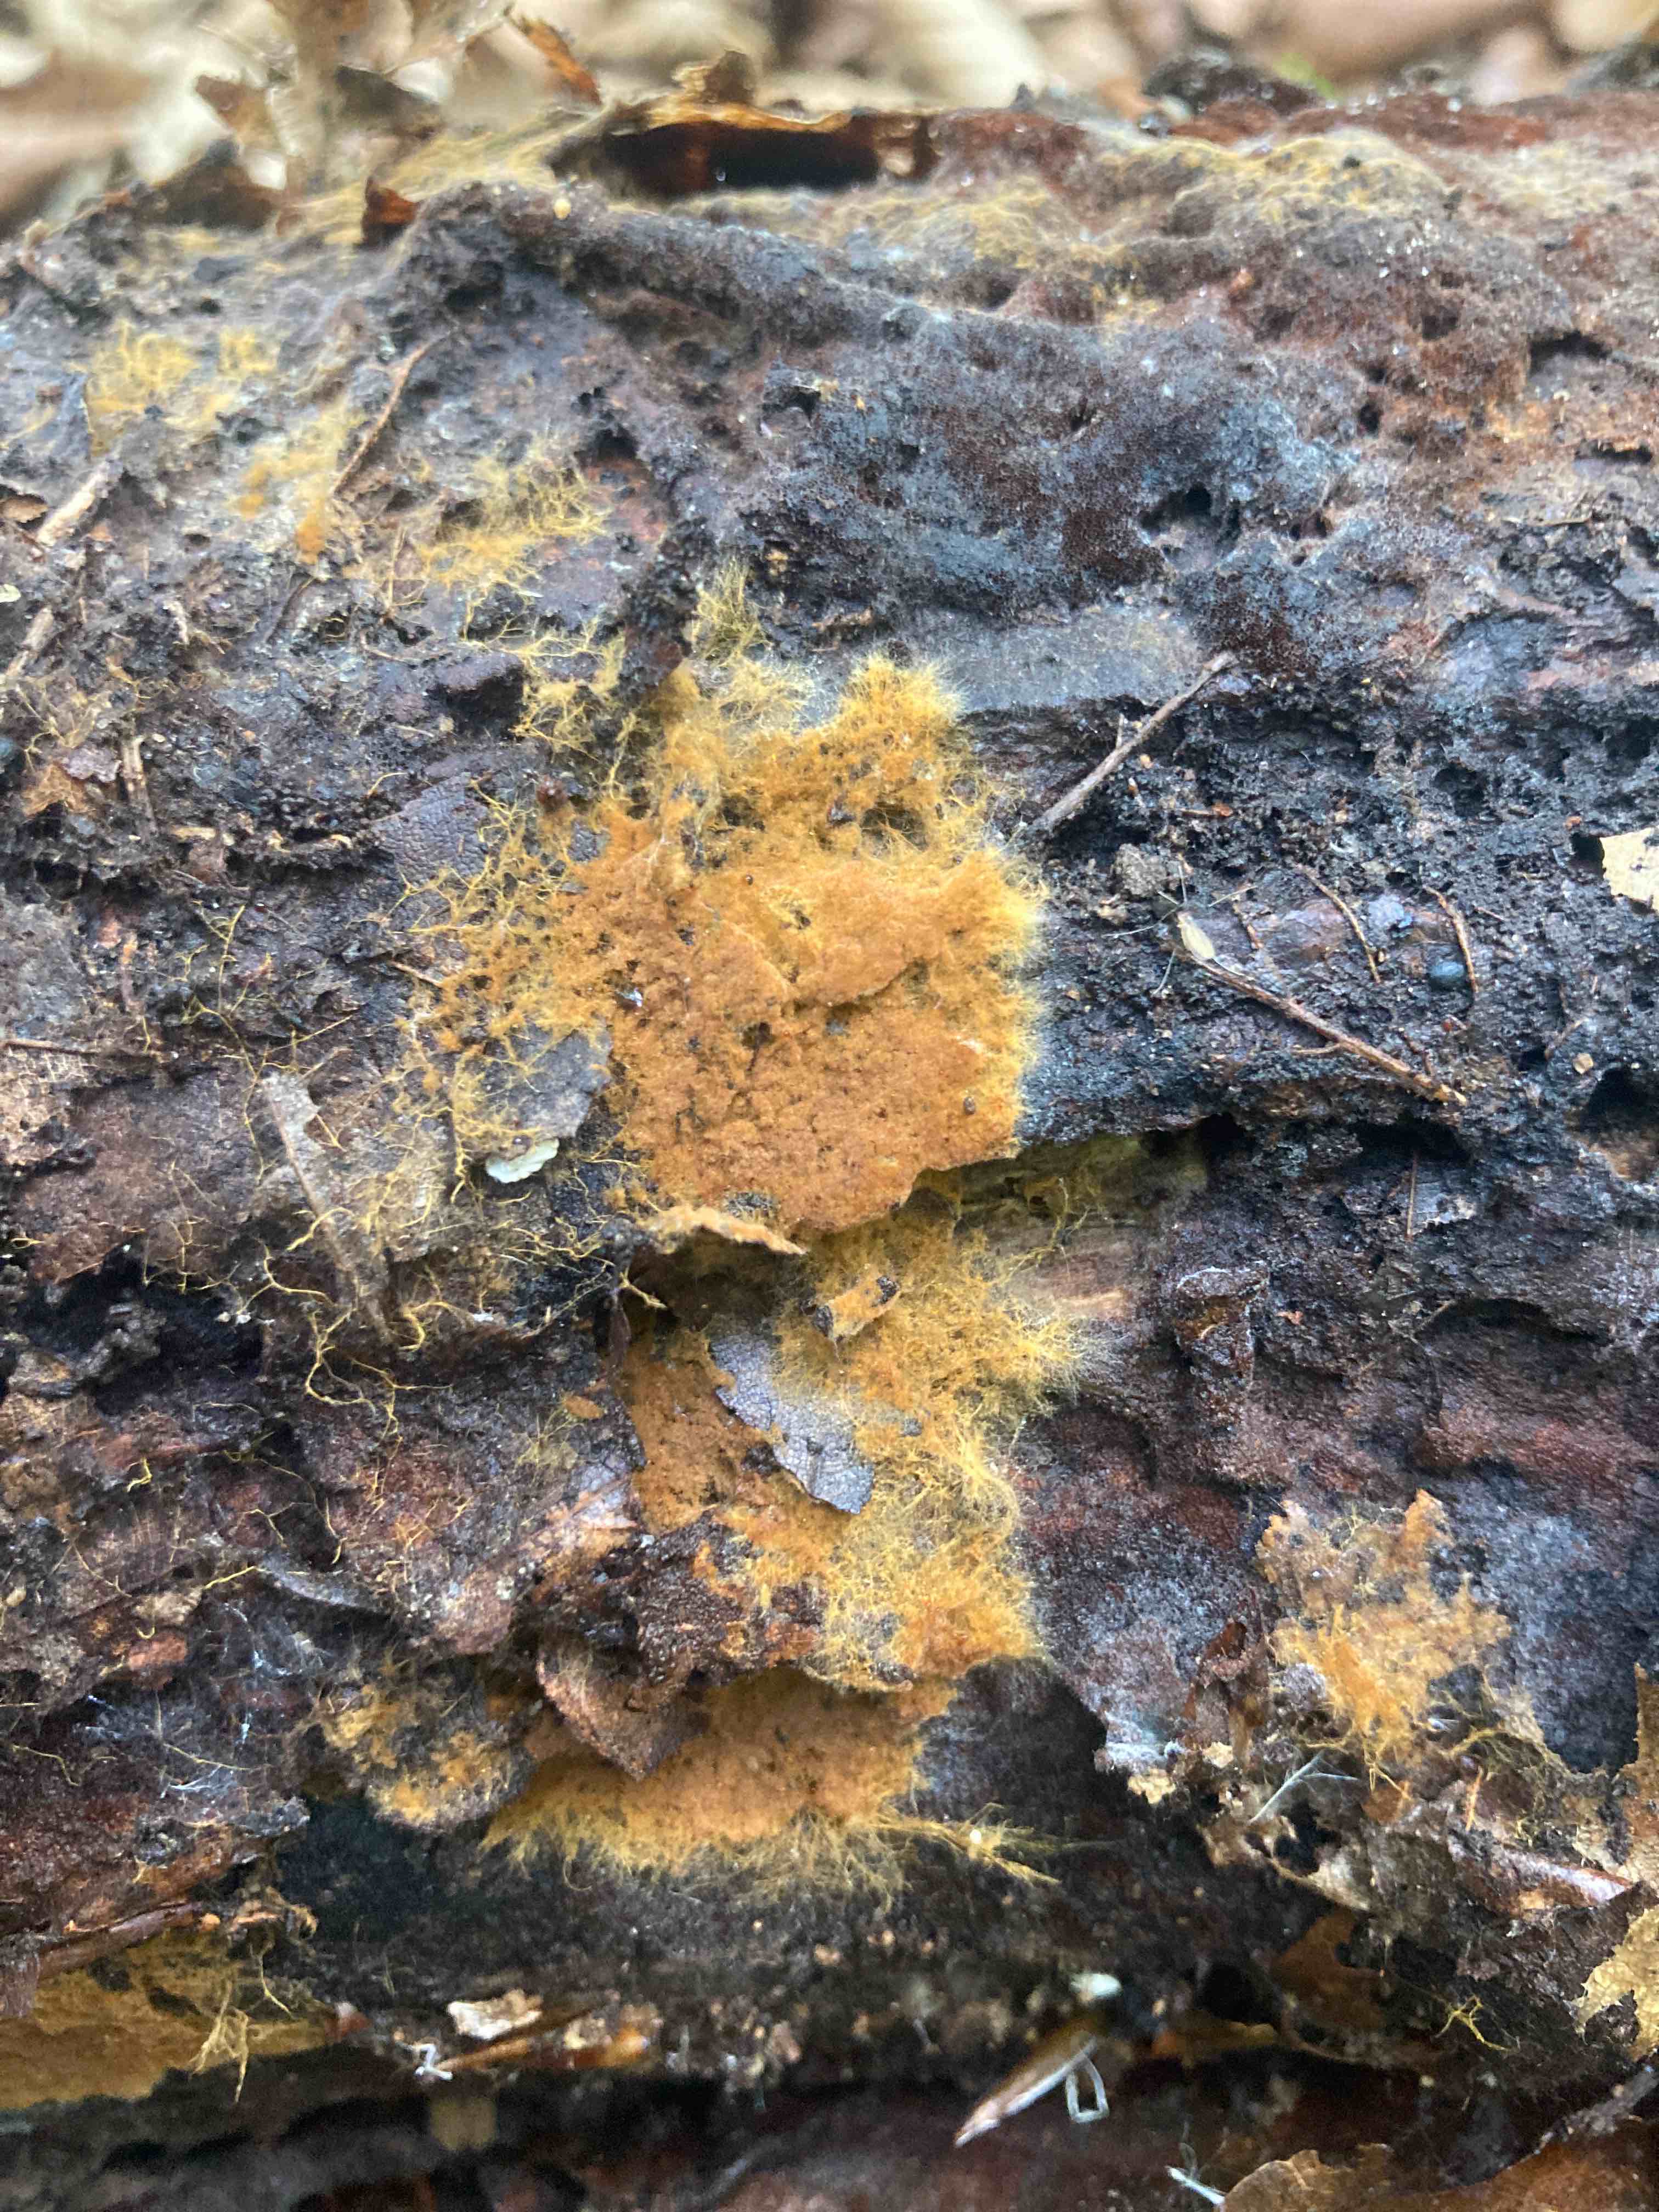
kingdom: Fungi
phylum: Basidiomycota
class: Agaricomycetes
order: Thelephorales
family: Thelephoraceae
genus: Odontia
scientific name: Odontia fibrosa
